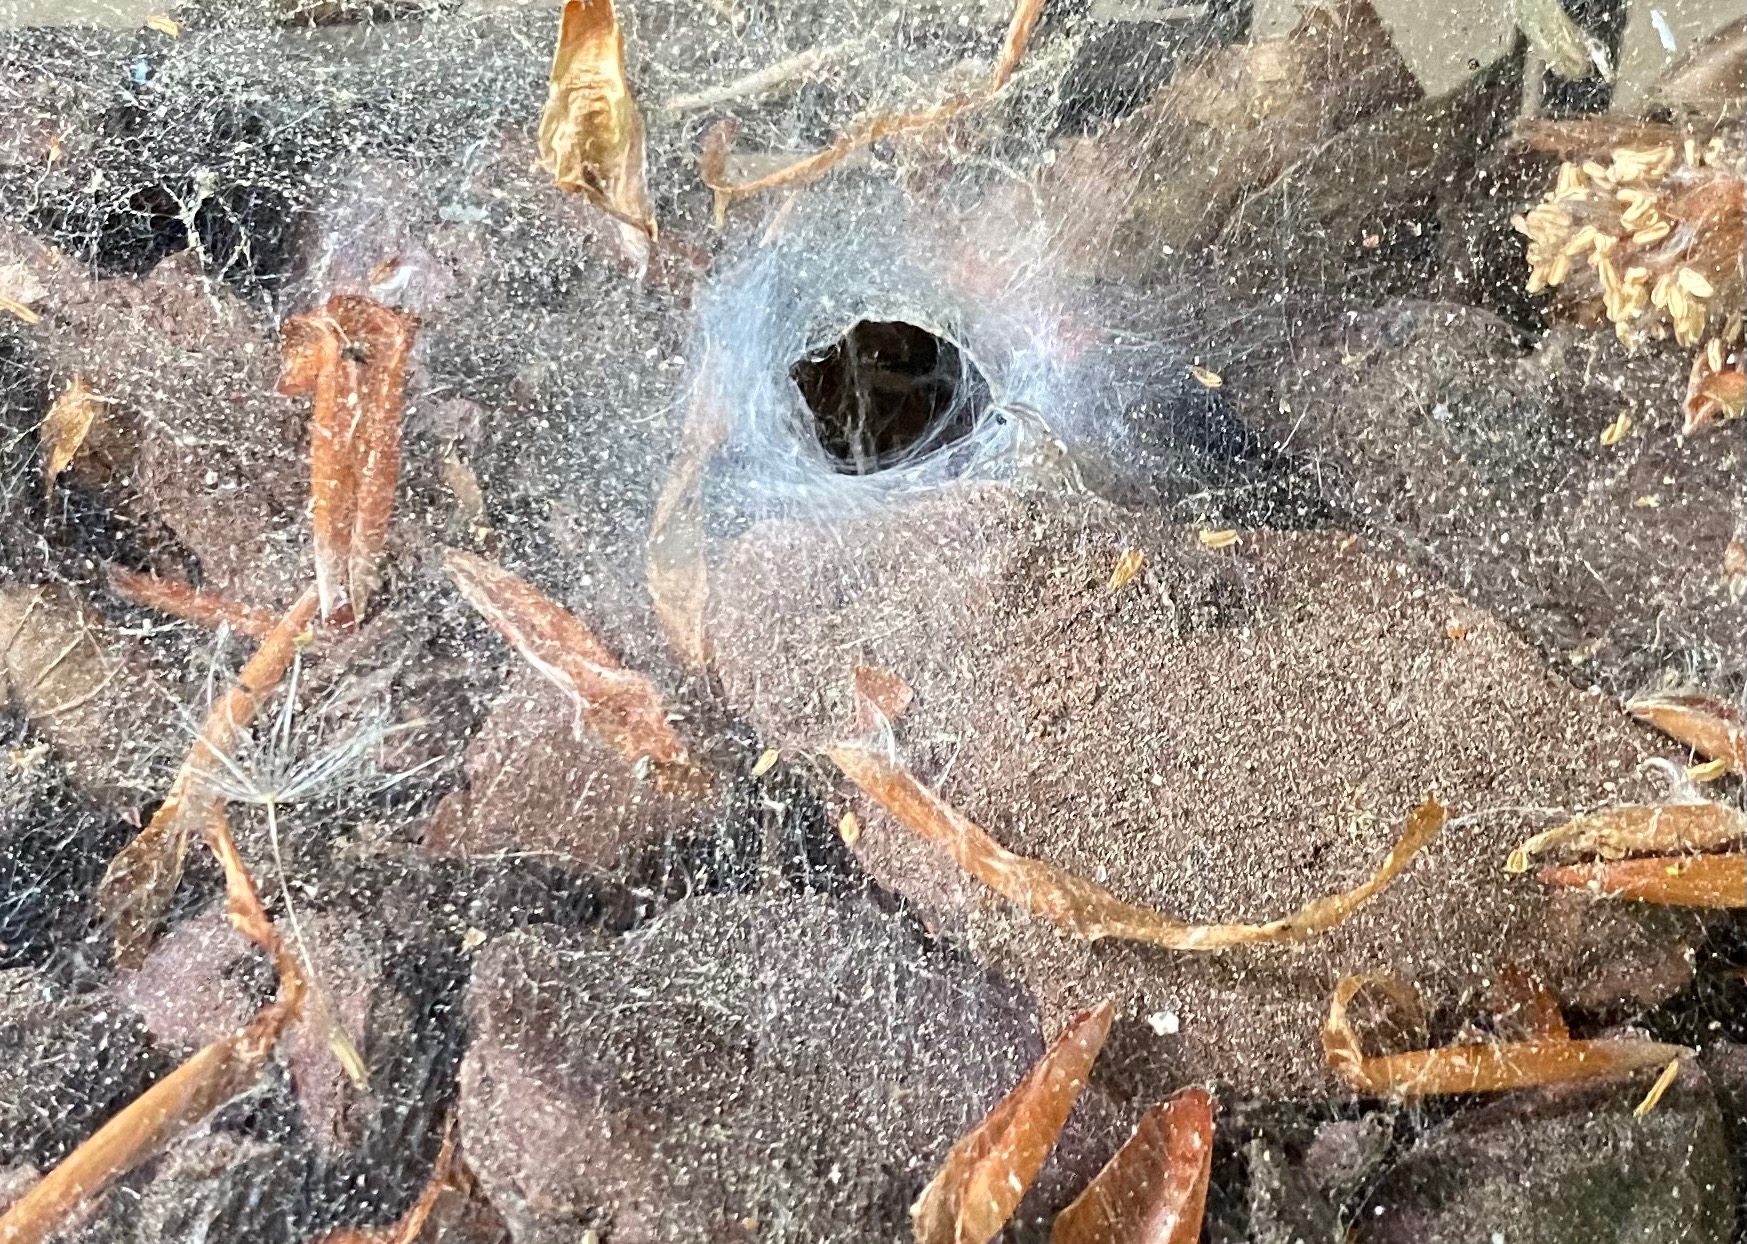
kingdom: Animalia
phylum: Arthropoda
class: Arachnida
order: Araneae
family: Agelenidae
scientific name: Agelenidae
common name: Tragtspindere
